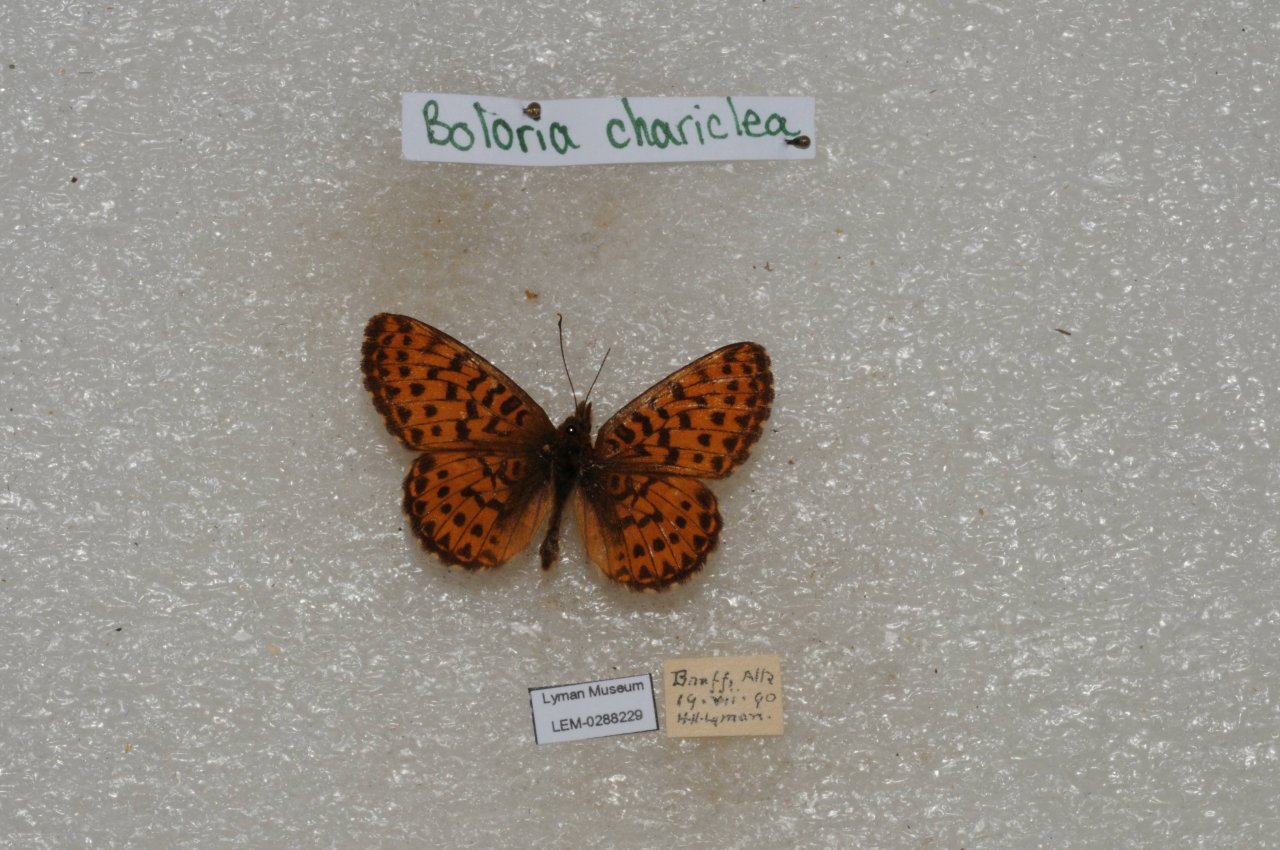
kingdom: Animalia
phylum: Arthropoda
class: Insecta
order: Lepidoptera
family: Nymphalidae
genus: Boloria
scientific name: Boloria chariclea
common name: Arctic Fritillary
